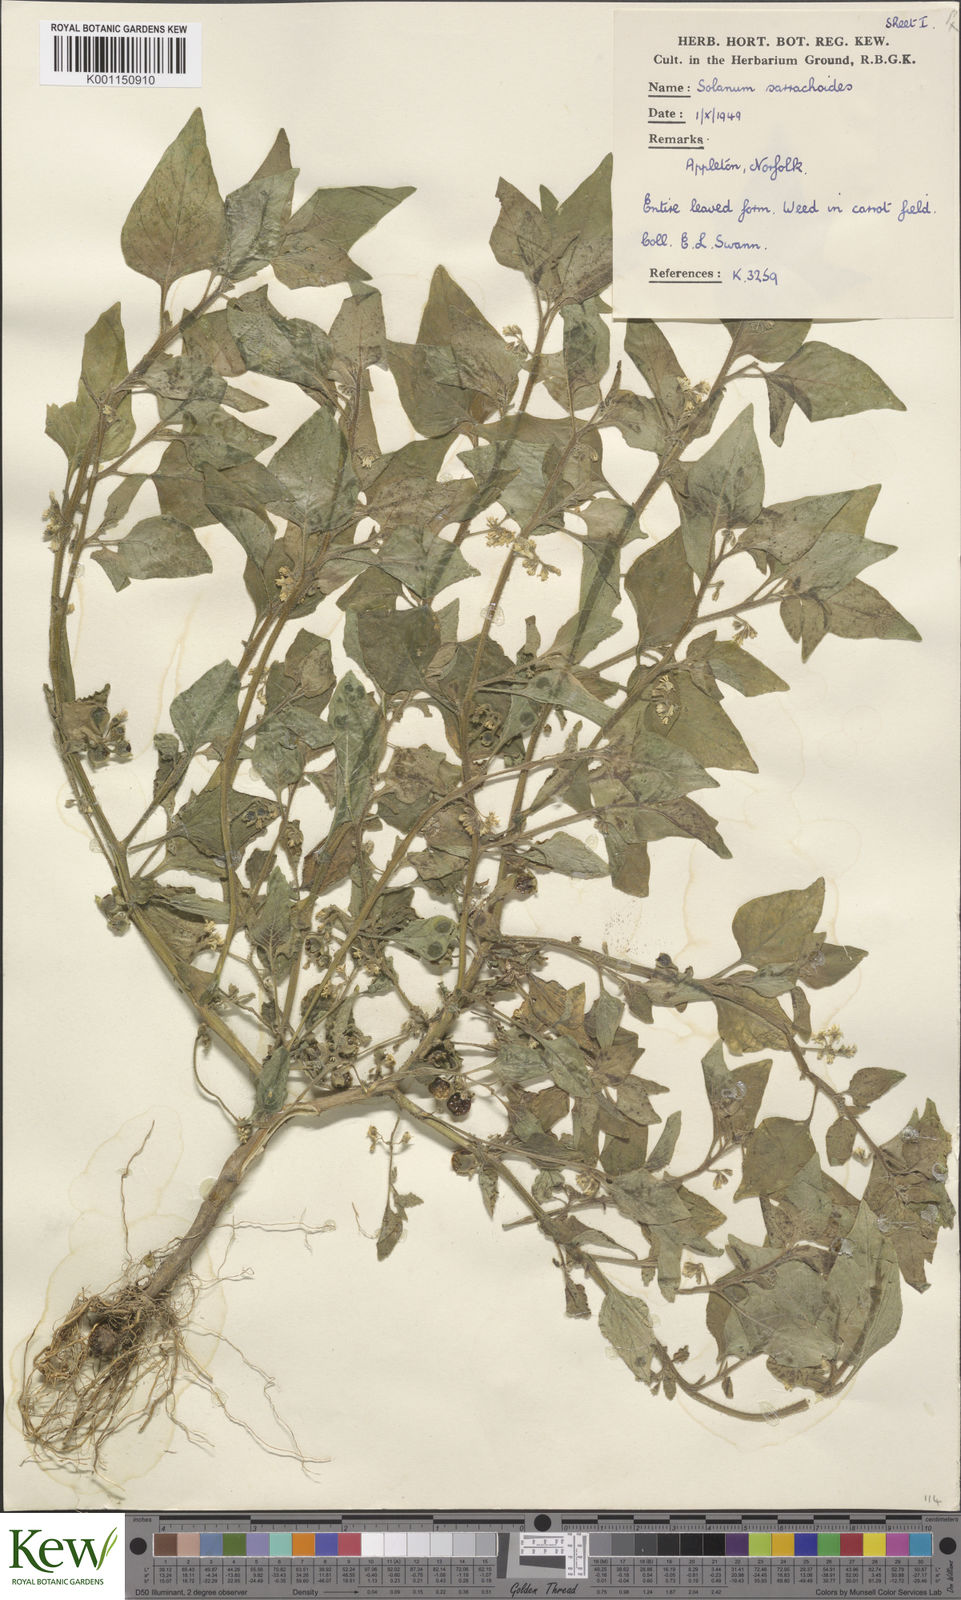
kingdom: Plantae
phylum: Tracheophyta
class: Magnoliopsida
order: Solanales
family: Solanaceae
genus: Solanum
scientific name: Solanum nitidibaccatum
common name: Hairy nightshade
